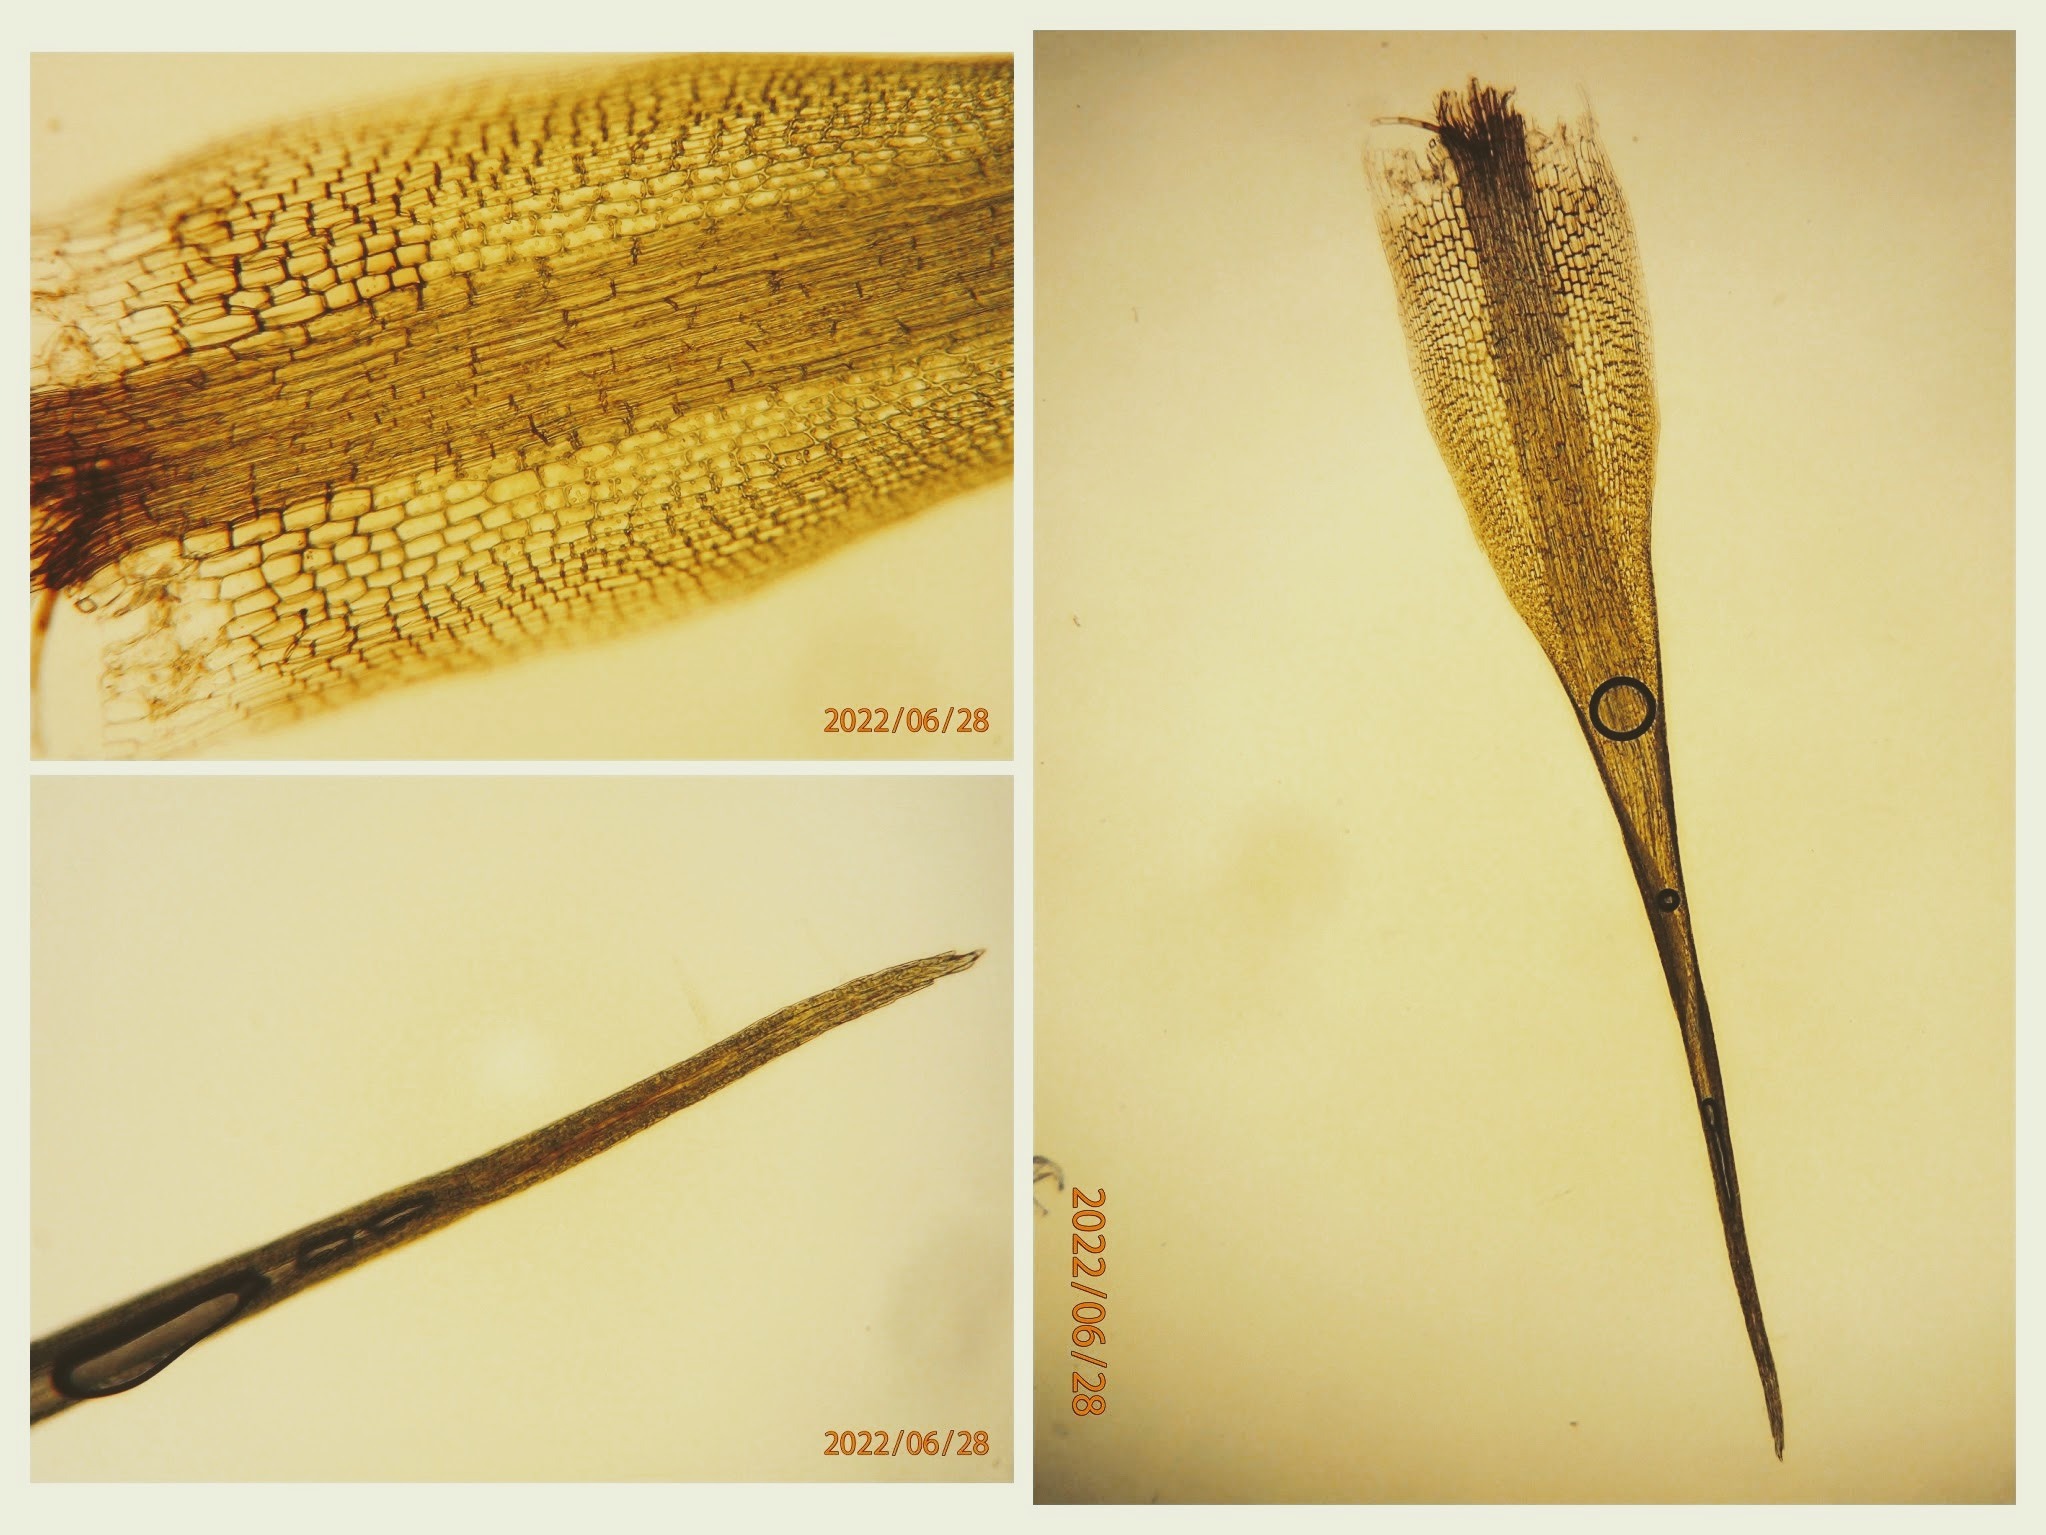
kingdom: Plantae
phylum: Bryophyta
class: Bryopsida
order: Dicranales
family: Dicranellaceae
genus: Dicranella
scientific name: Dicranella cerviculata
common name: Mose-fløjlsmos
